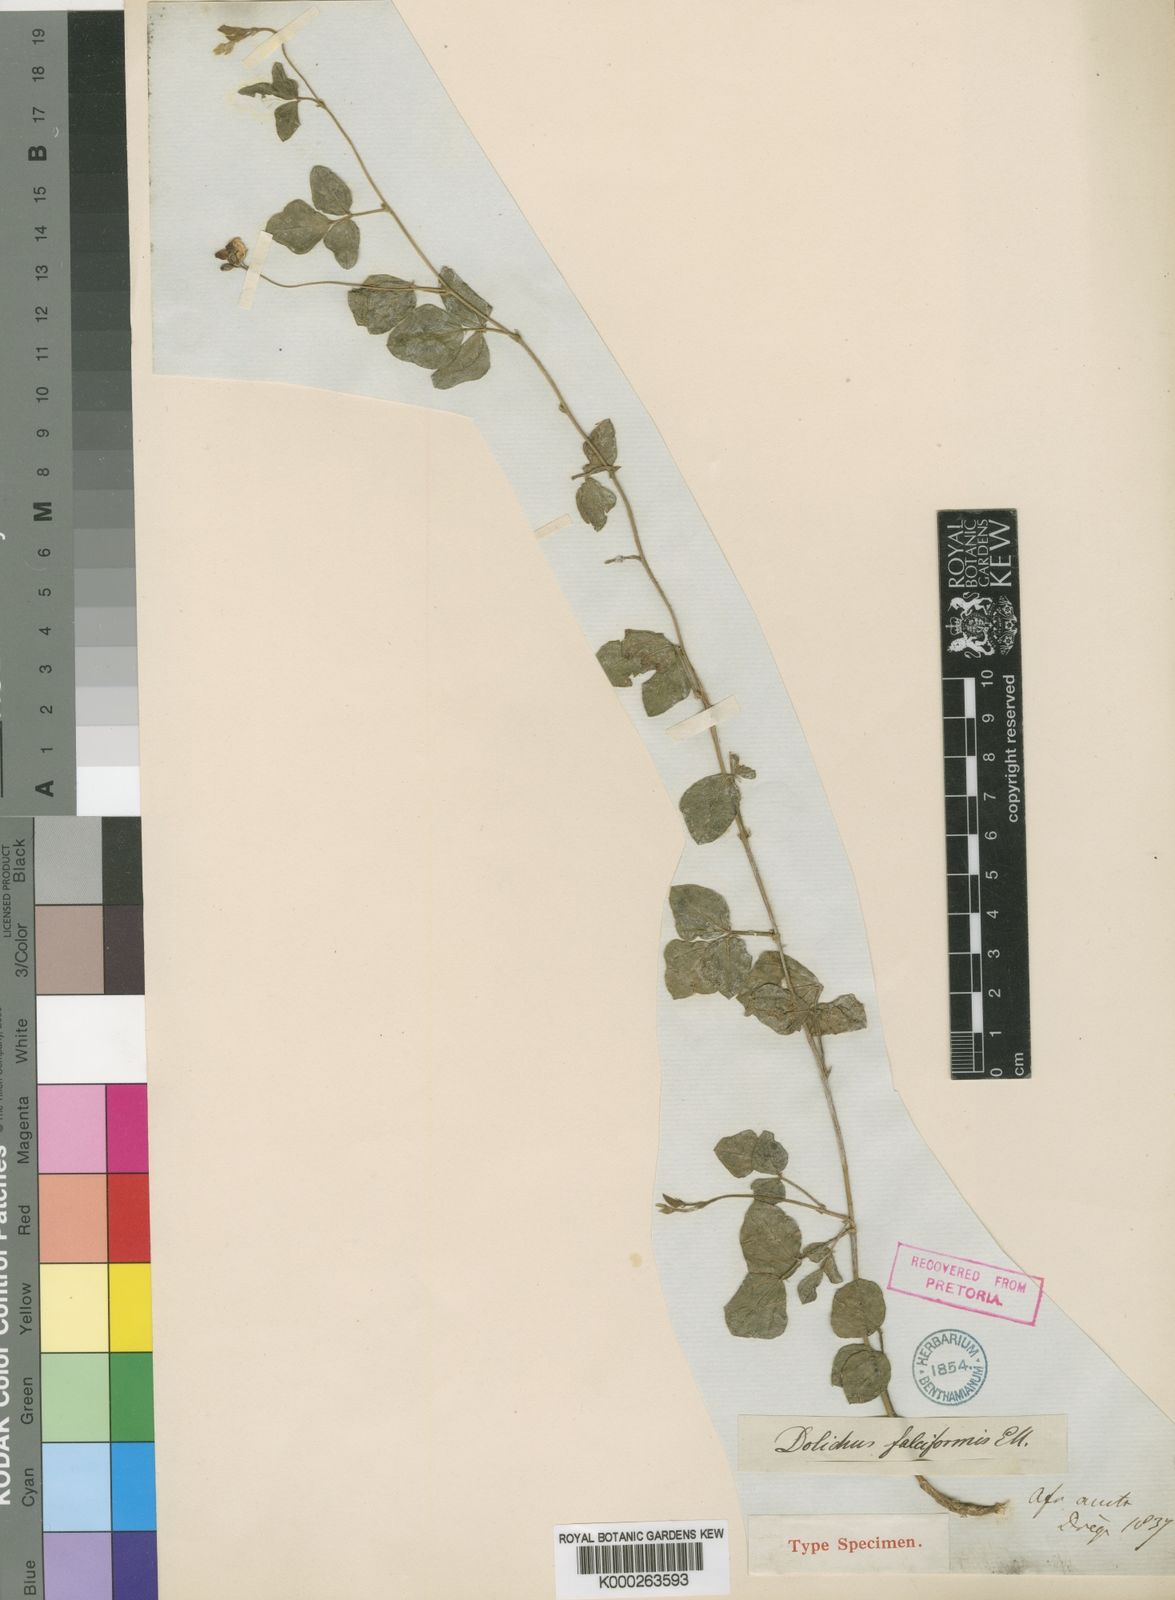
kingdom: Plantae
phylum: Tracheophyta
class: Magnoliopsida
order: Fabales
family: Fabaceae
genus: Dolichos
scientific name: Dolichos falciformis
